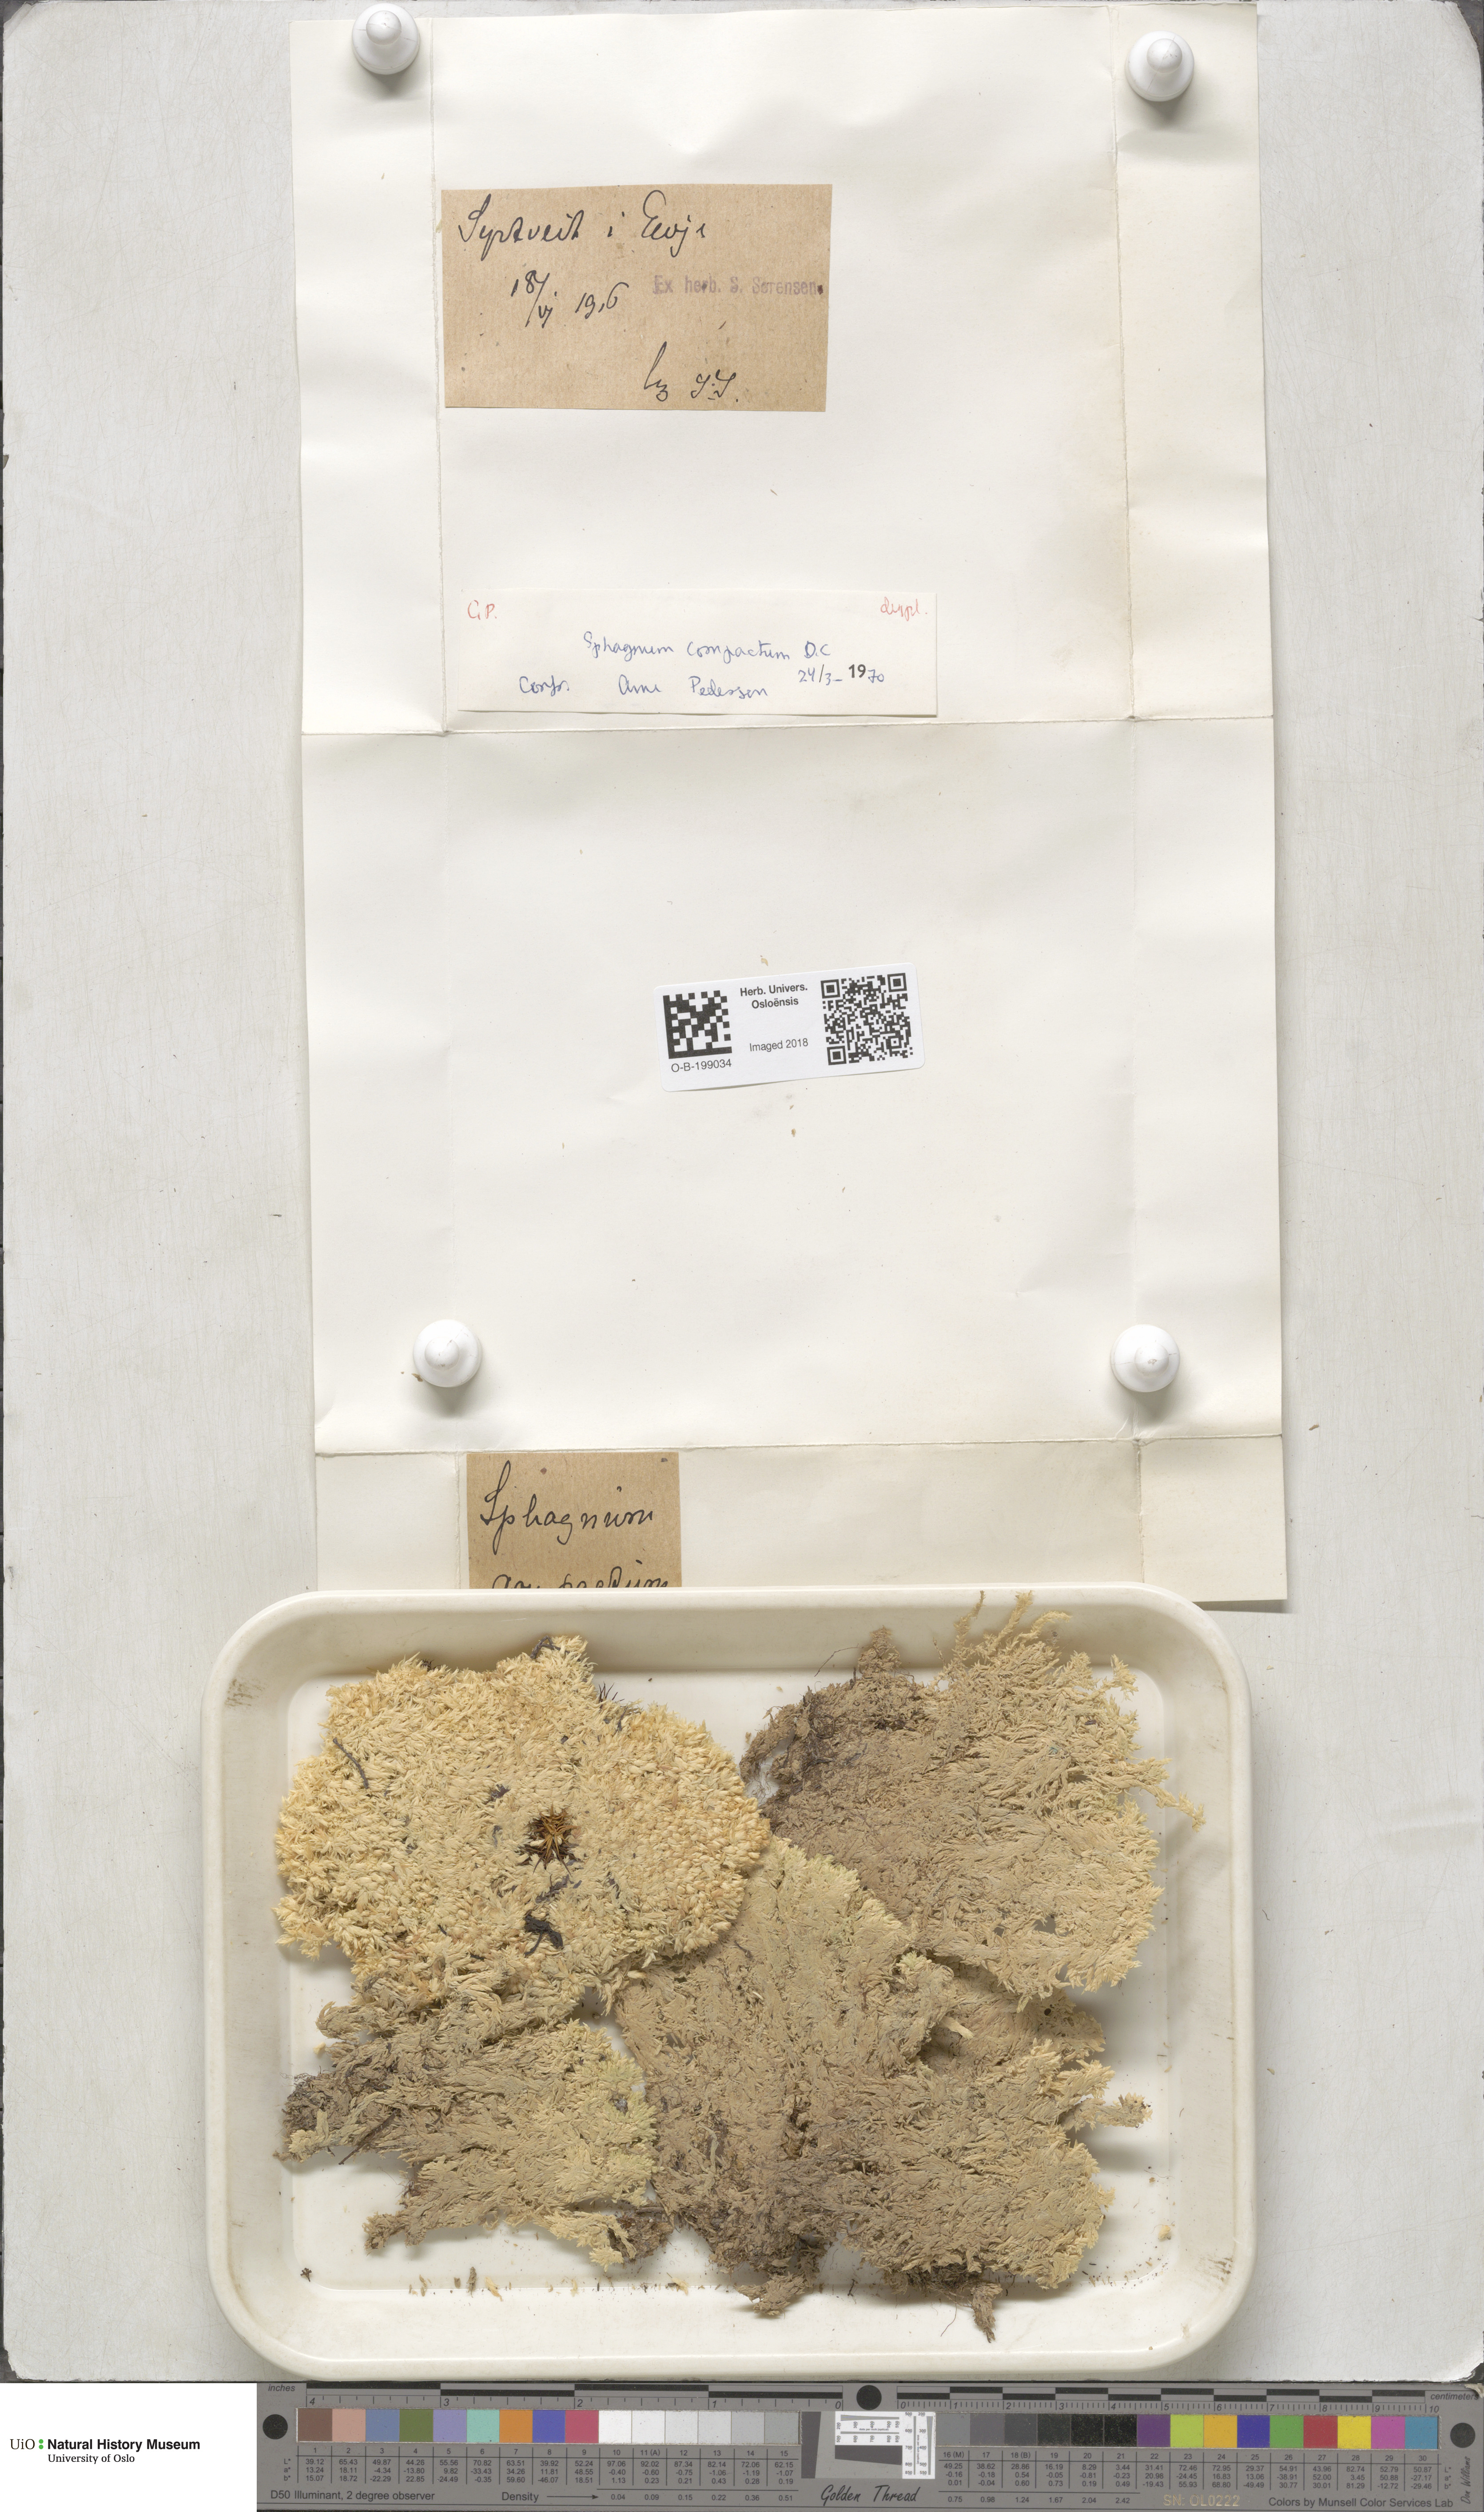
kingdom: Plantae
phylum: Bryophyta
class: Sphagnopsida
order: Sphagnales
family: Sphagnaceae
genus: Sphagnum
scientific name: Sphagnum compactum
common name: Compact peat moss
